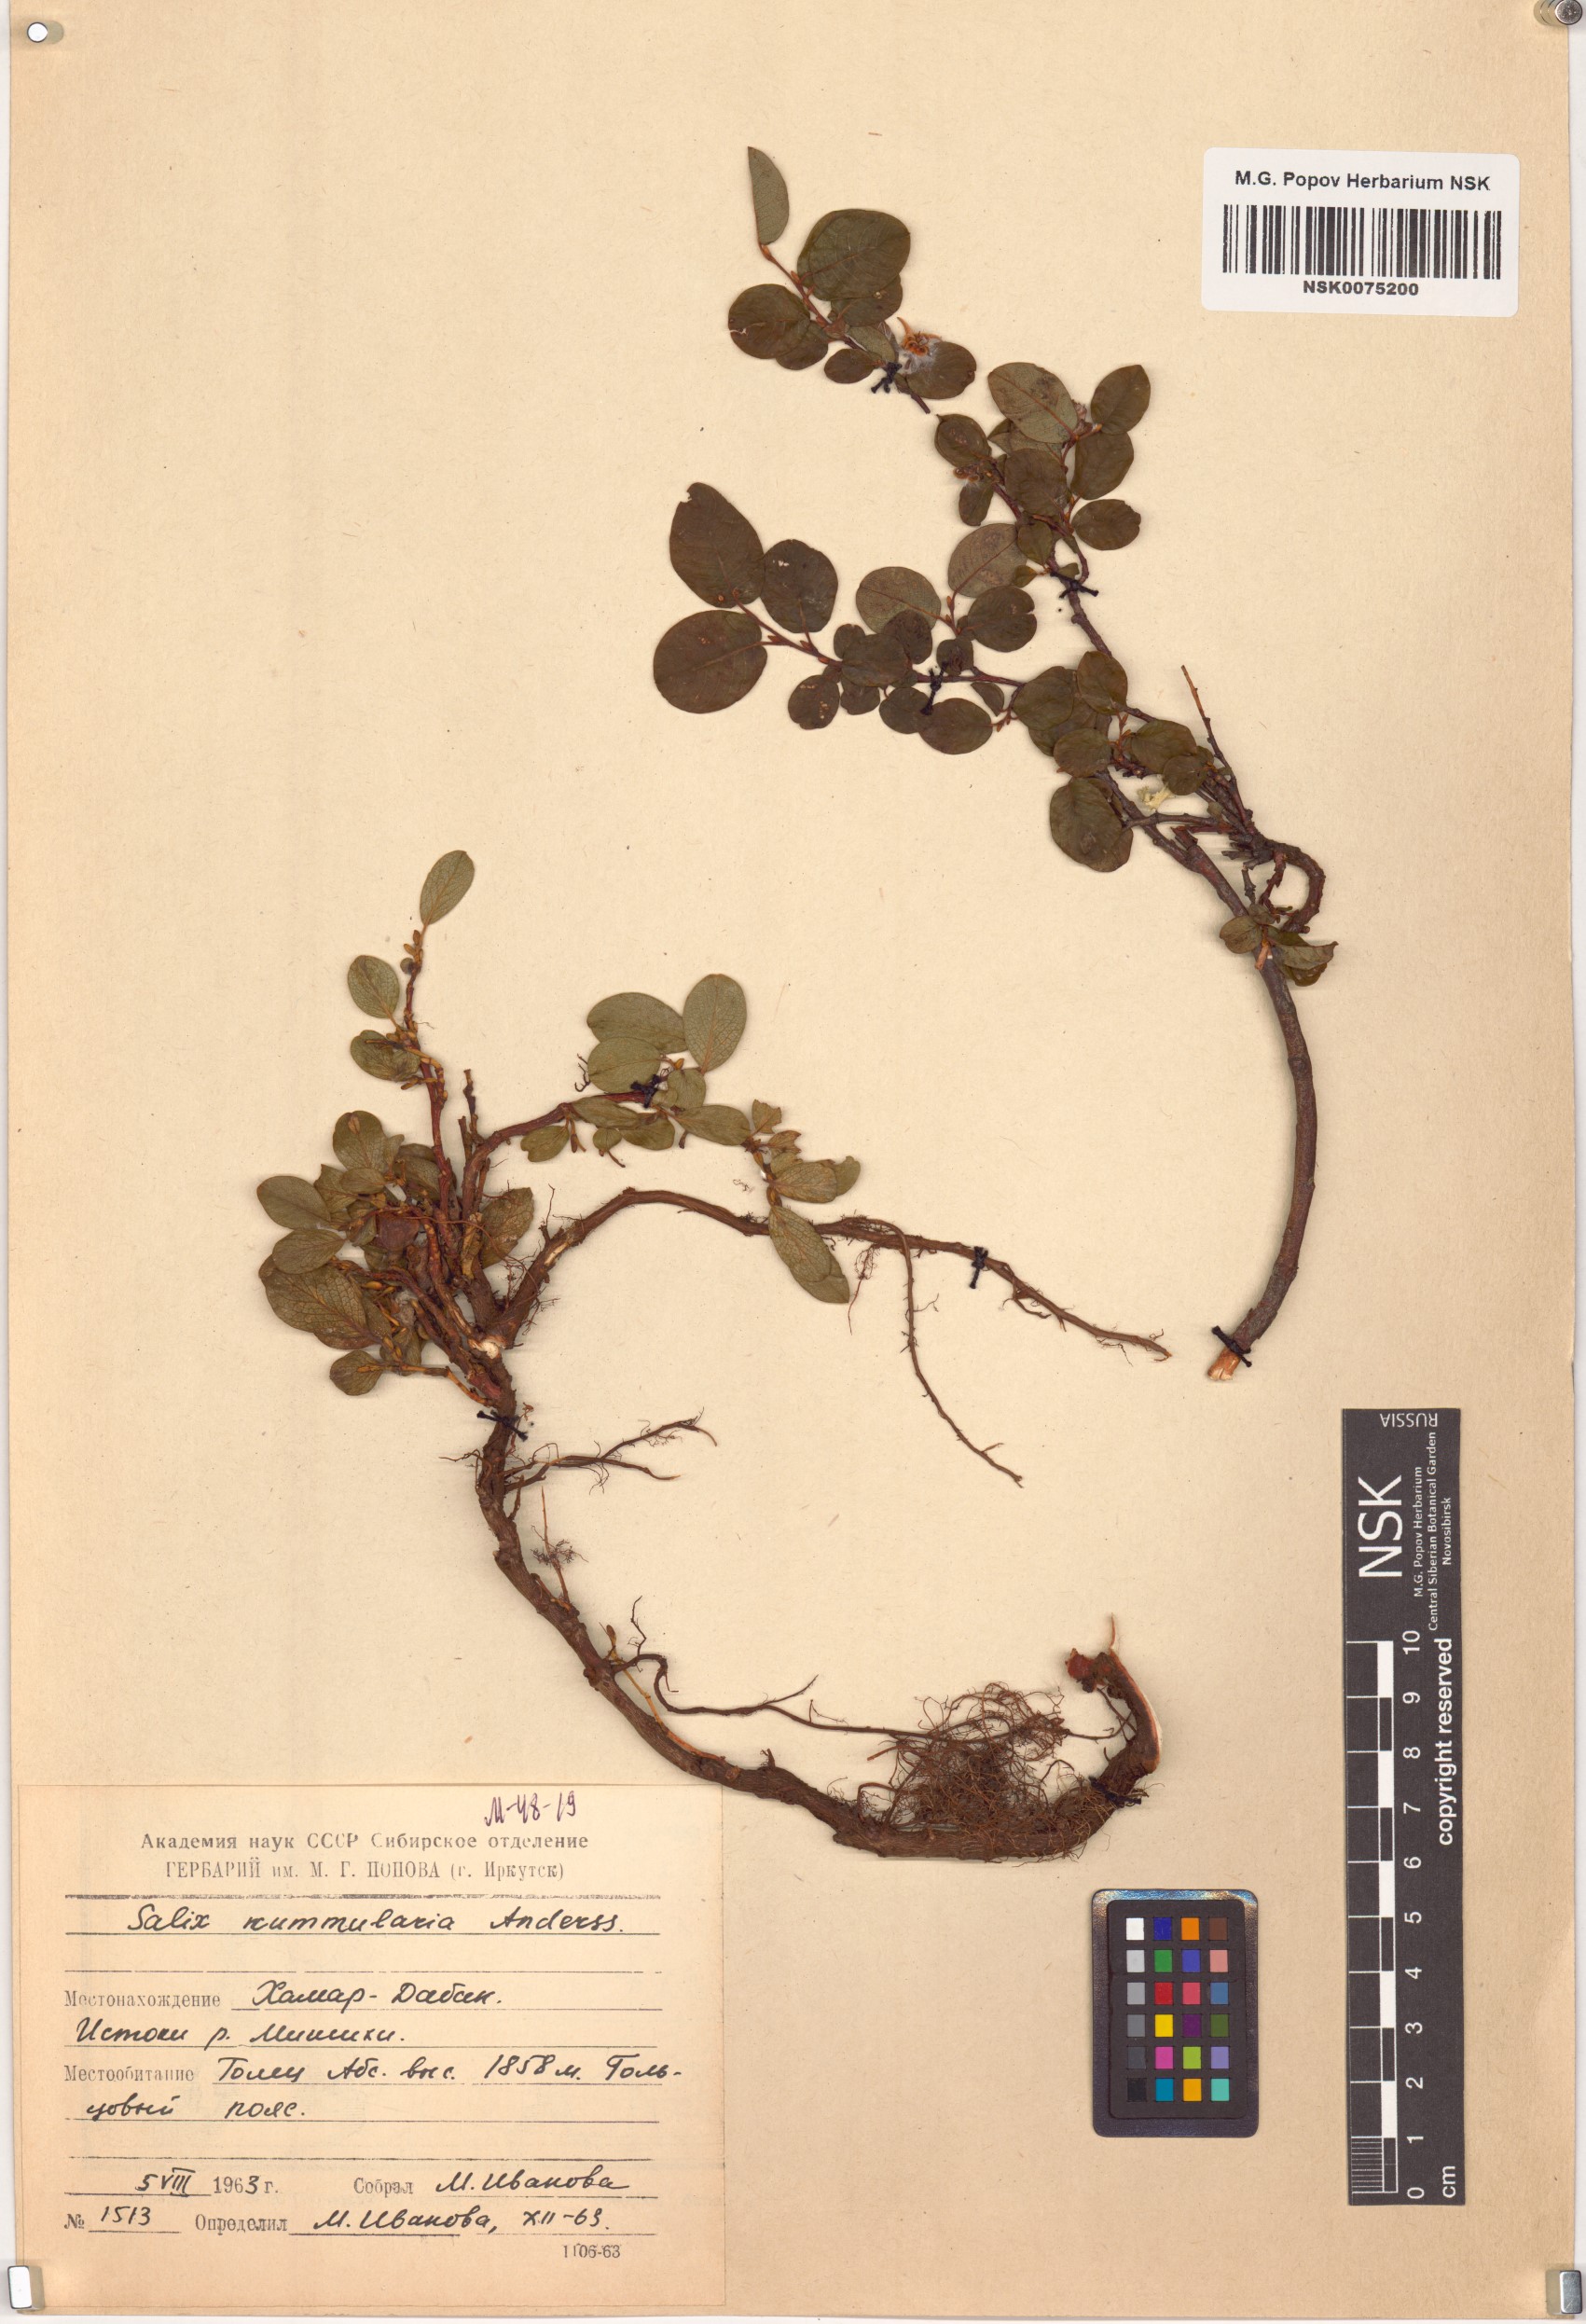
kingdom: Plantae
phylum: Tracheophyta
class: Magnoliopsida
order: Malpighiales
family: Salicaceae
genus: Salix
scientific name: Salix nummularia
